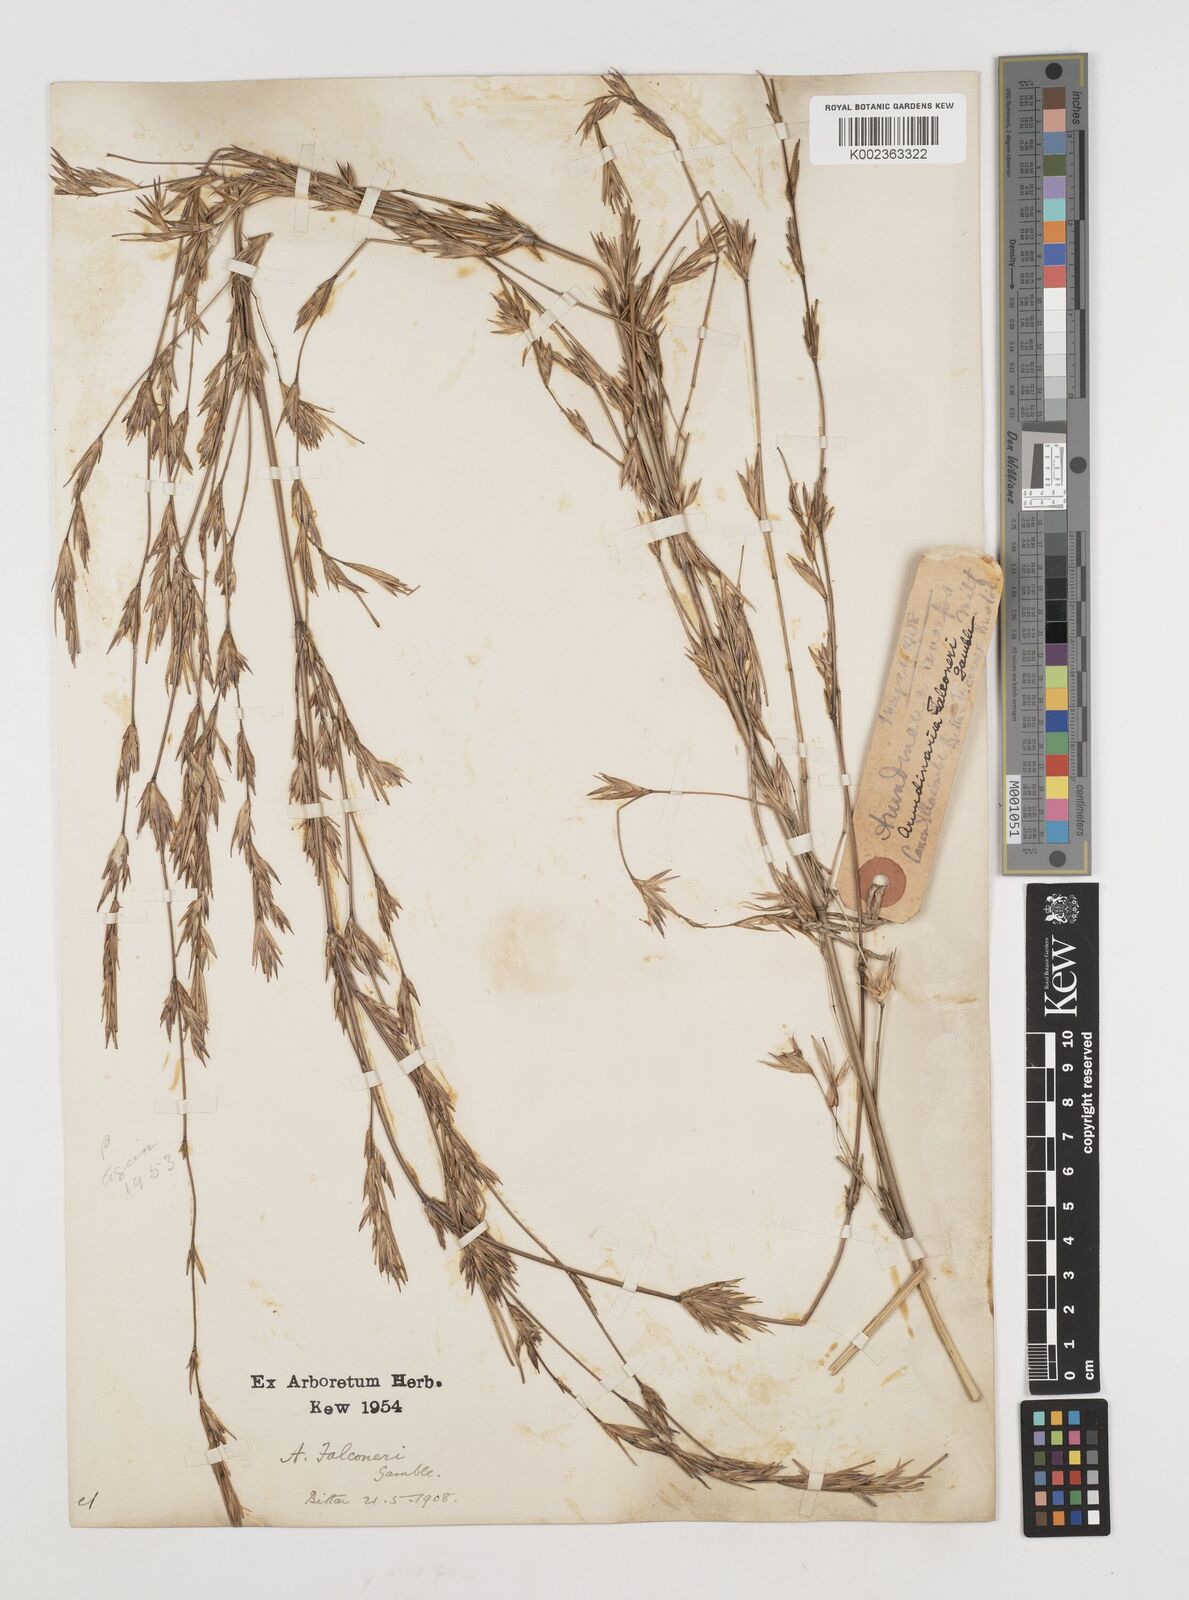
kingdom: Plantae
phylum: Tracheophyta
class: Liliopsida
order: Poales
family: Poaceae
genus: Himalayacalamus
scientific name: Himalayacalamus falconeri
